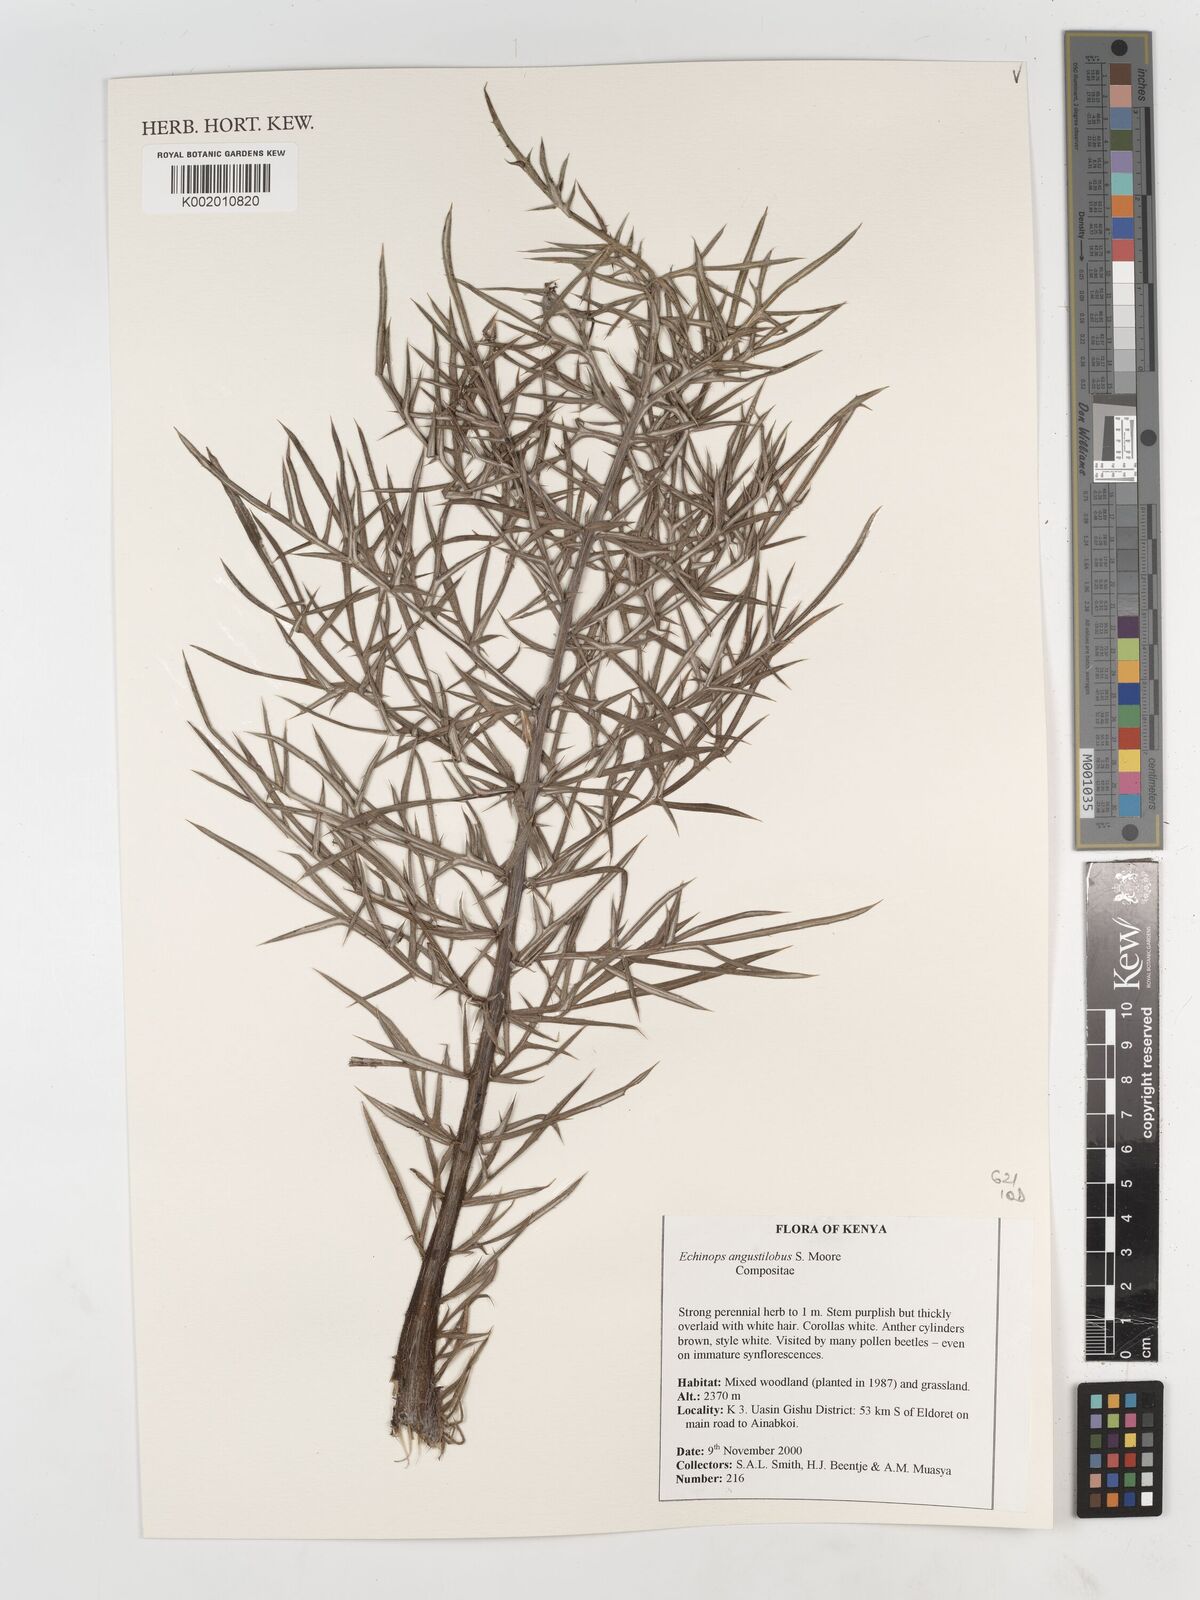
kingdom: Plantae
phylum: Tracheophyta
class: Magnoliopsida
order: Asterales
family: Asteraceae
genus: Echinops
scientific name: Echinops angustilobus
